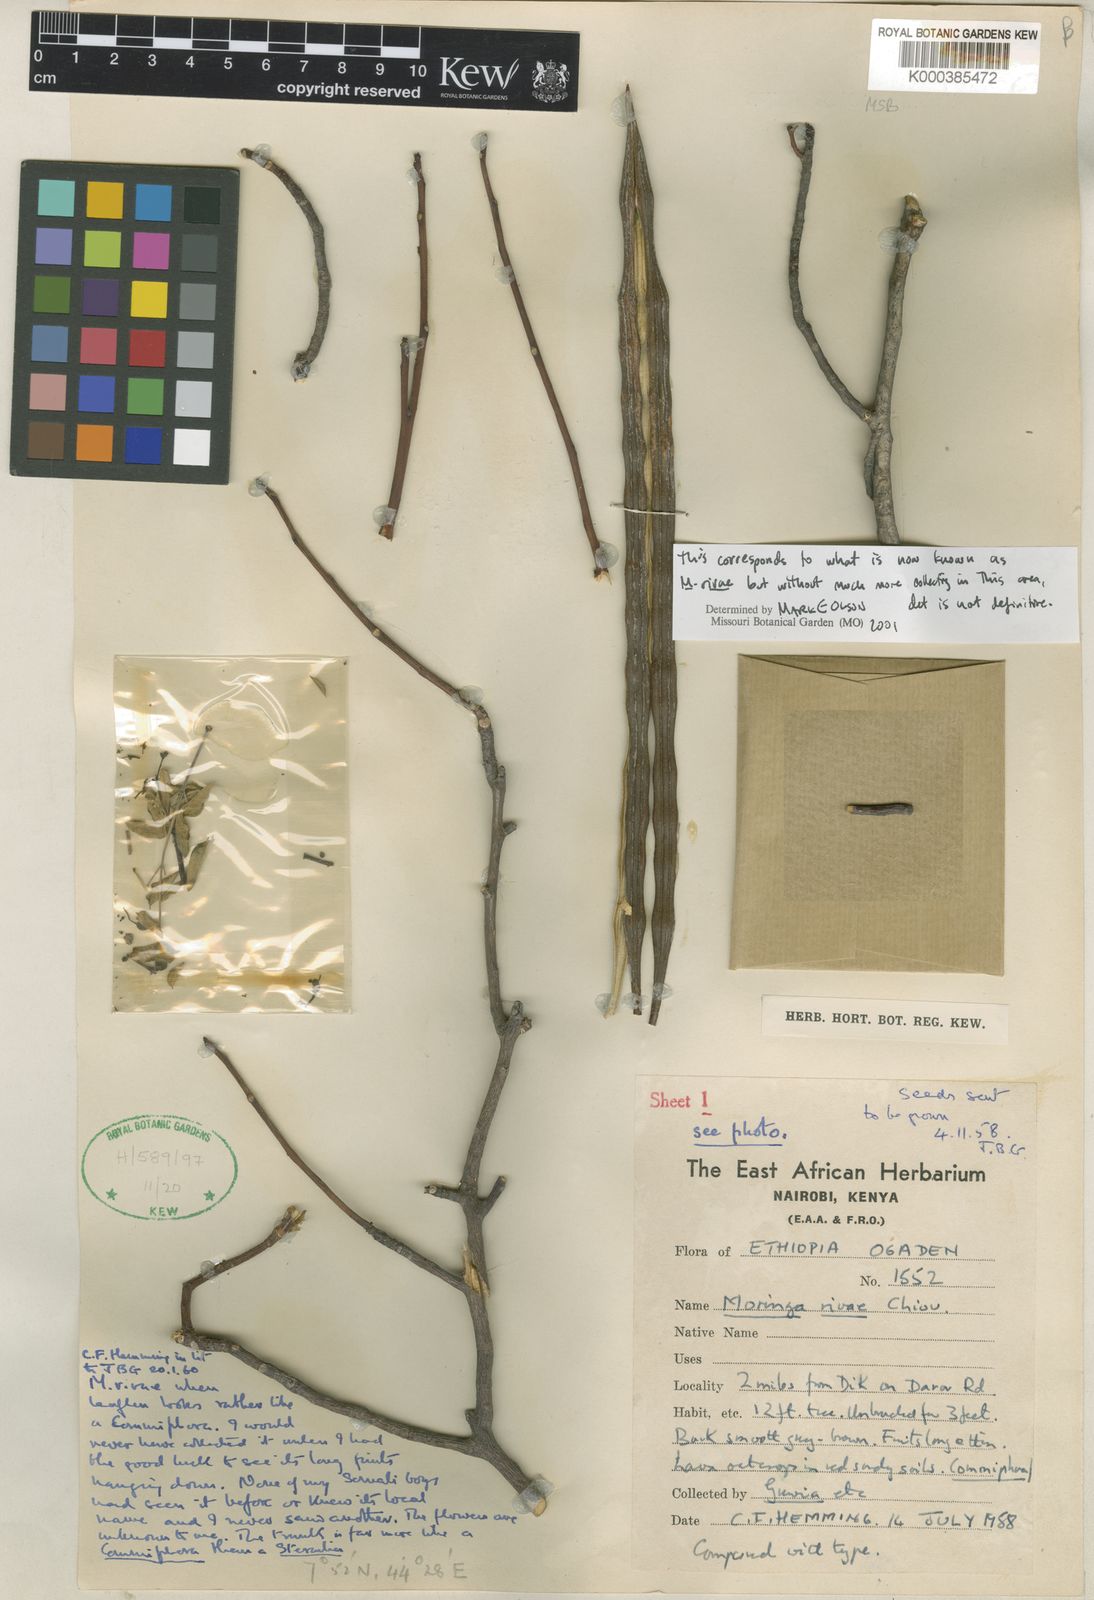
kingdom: Plantae
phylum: Tracheophyta
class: Magnoliopsida
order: Brassicales
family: Moringaceae
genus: Moringa
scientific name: Moringa rivae
